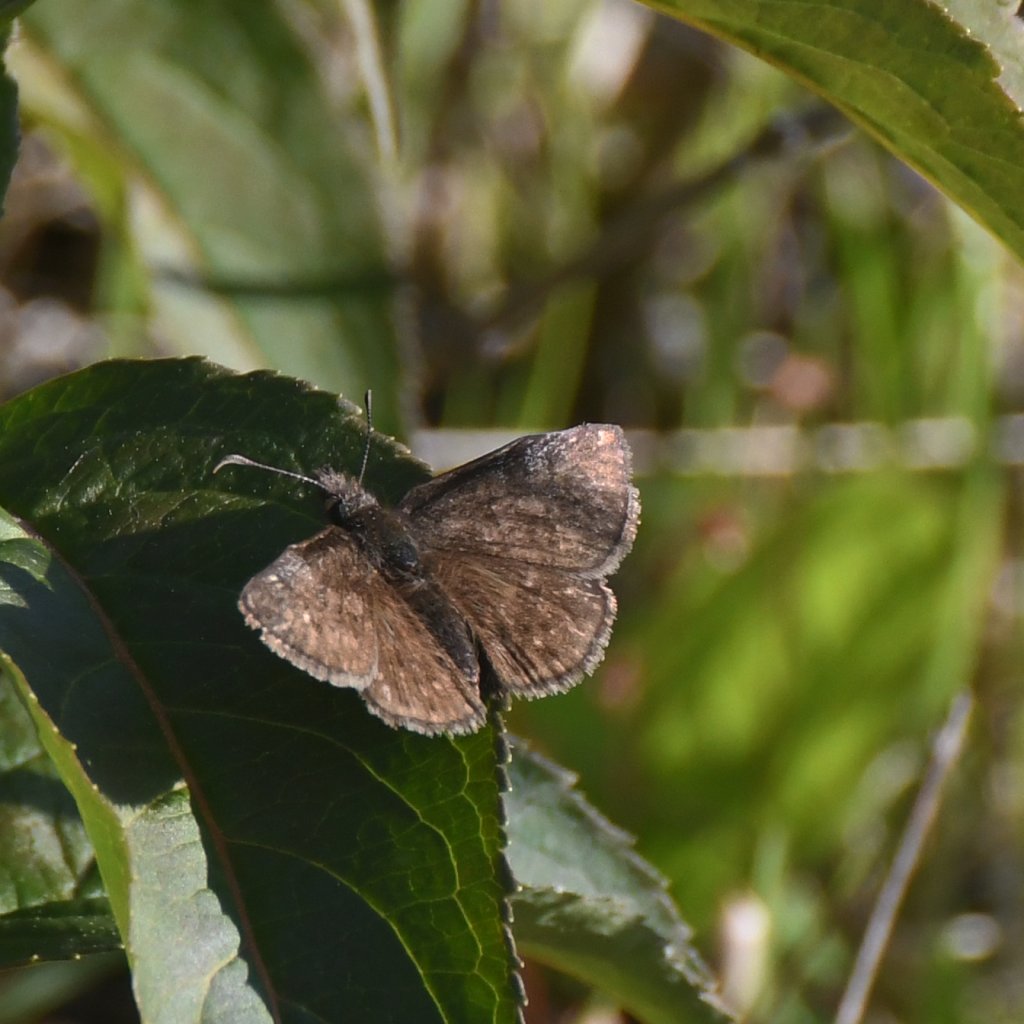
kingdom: Animalia
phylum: Arthropoda
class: Insecta
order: Lepidoptera
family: Hesperiidae
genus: Erynnis
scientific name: Erynnis icelus
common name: Dreamy Duskywing
